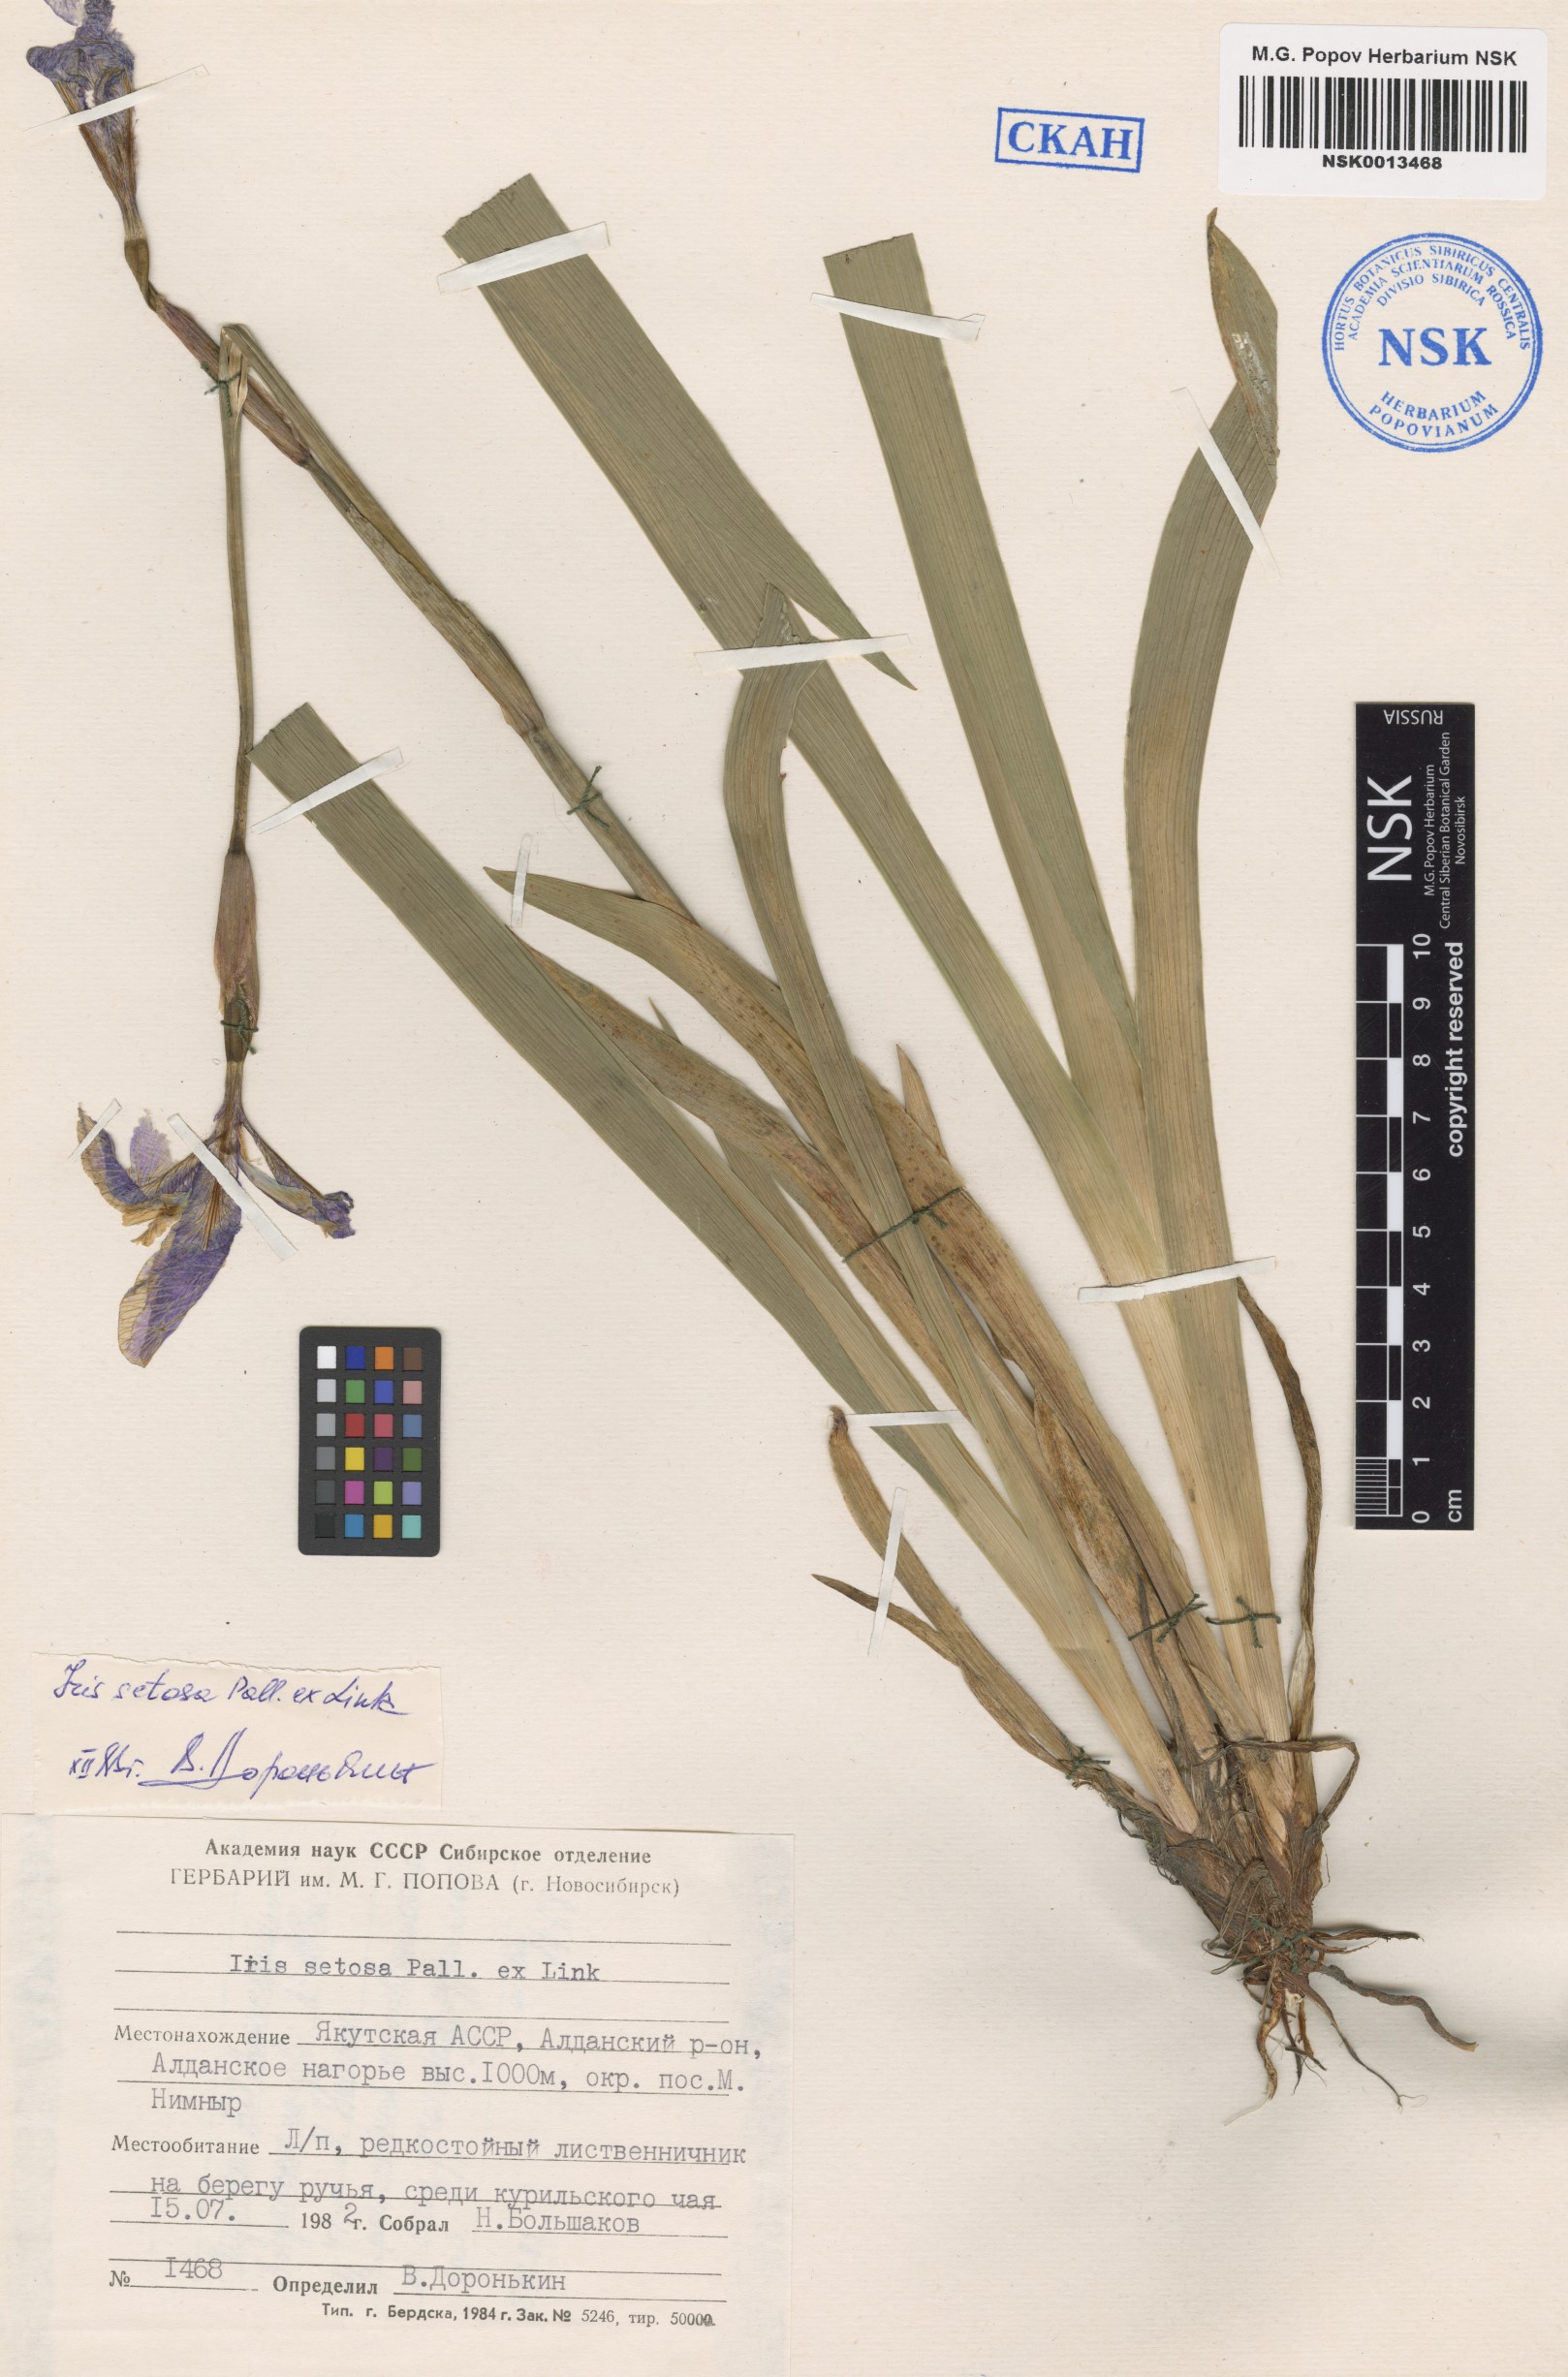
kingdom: Plantae
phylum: Tracheophyta
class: Liliopsida
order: Asparagales
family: Iridaceae
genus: Iris
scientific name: Iris setosa
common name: Arctic blue flag
